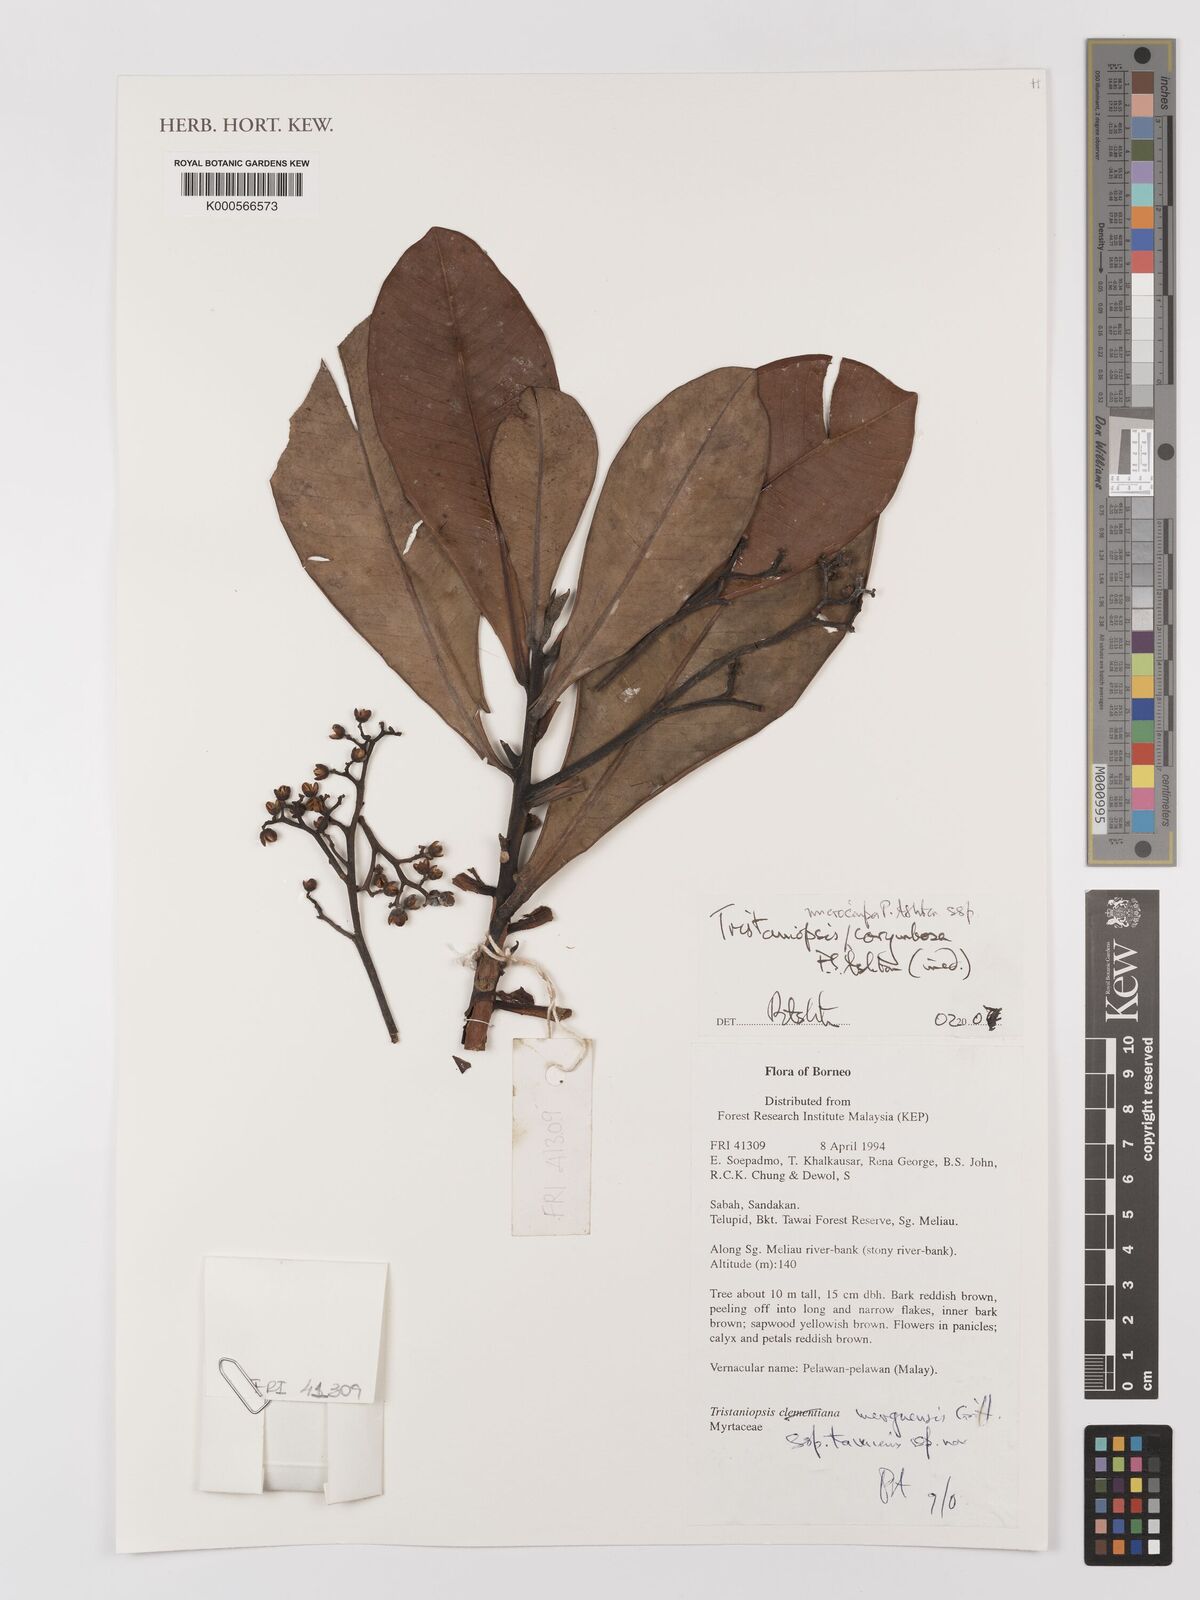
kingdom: Plantae
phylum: Tracheophyta
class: Magnoliopsida
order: Myrtales
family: Myrtaceae
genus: Tristaniopsis
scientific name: Tristaniopsis microcarpa
